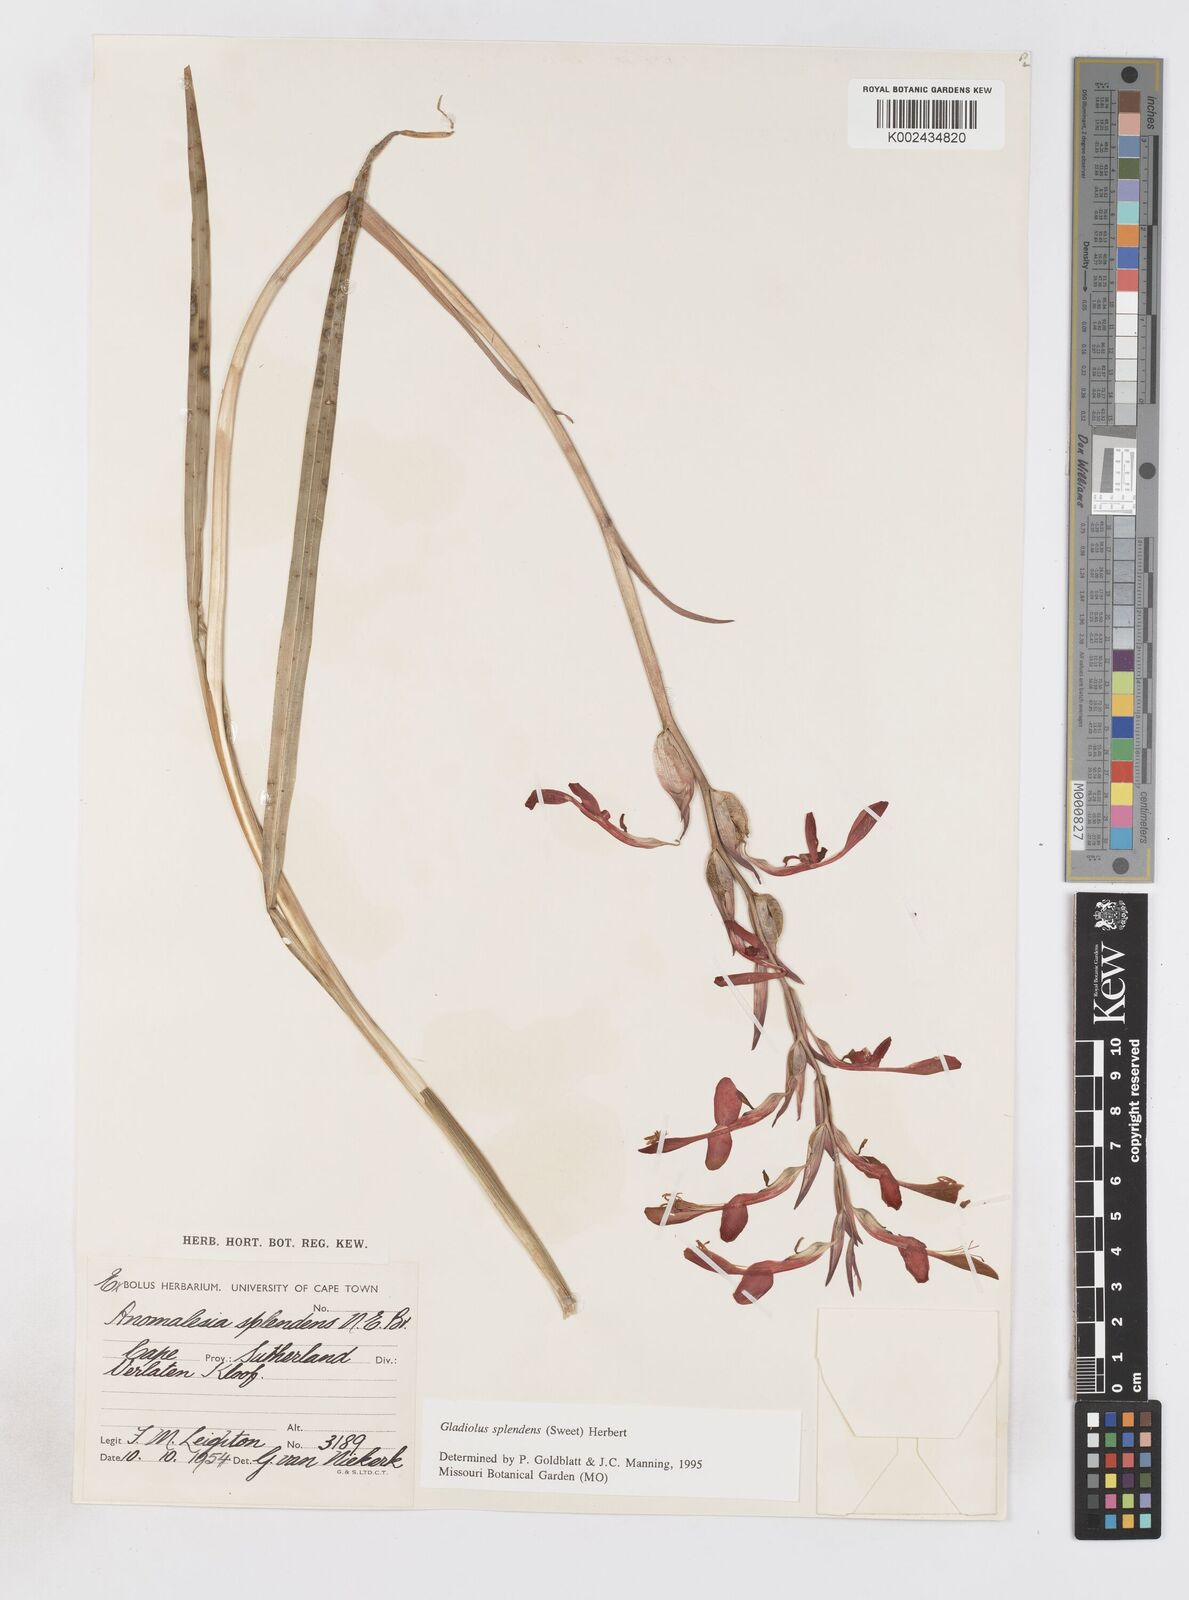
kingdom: Plantae
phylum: Tracheophyta
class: Liliopsida
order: Asparagales
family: Iridaceae
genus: Gladiolus
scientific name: Gladiolus splendens
